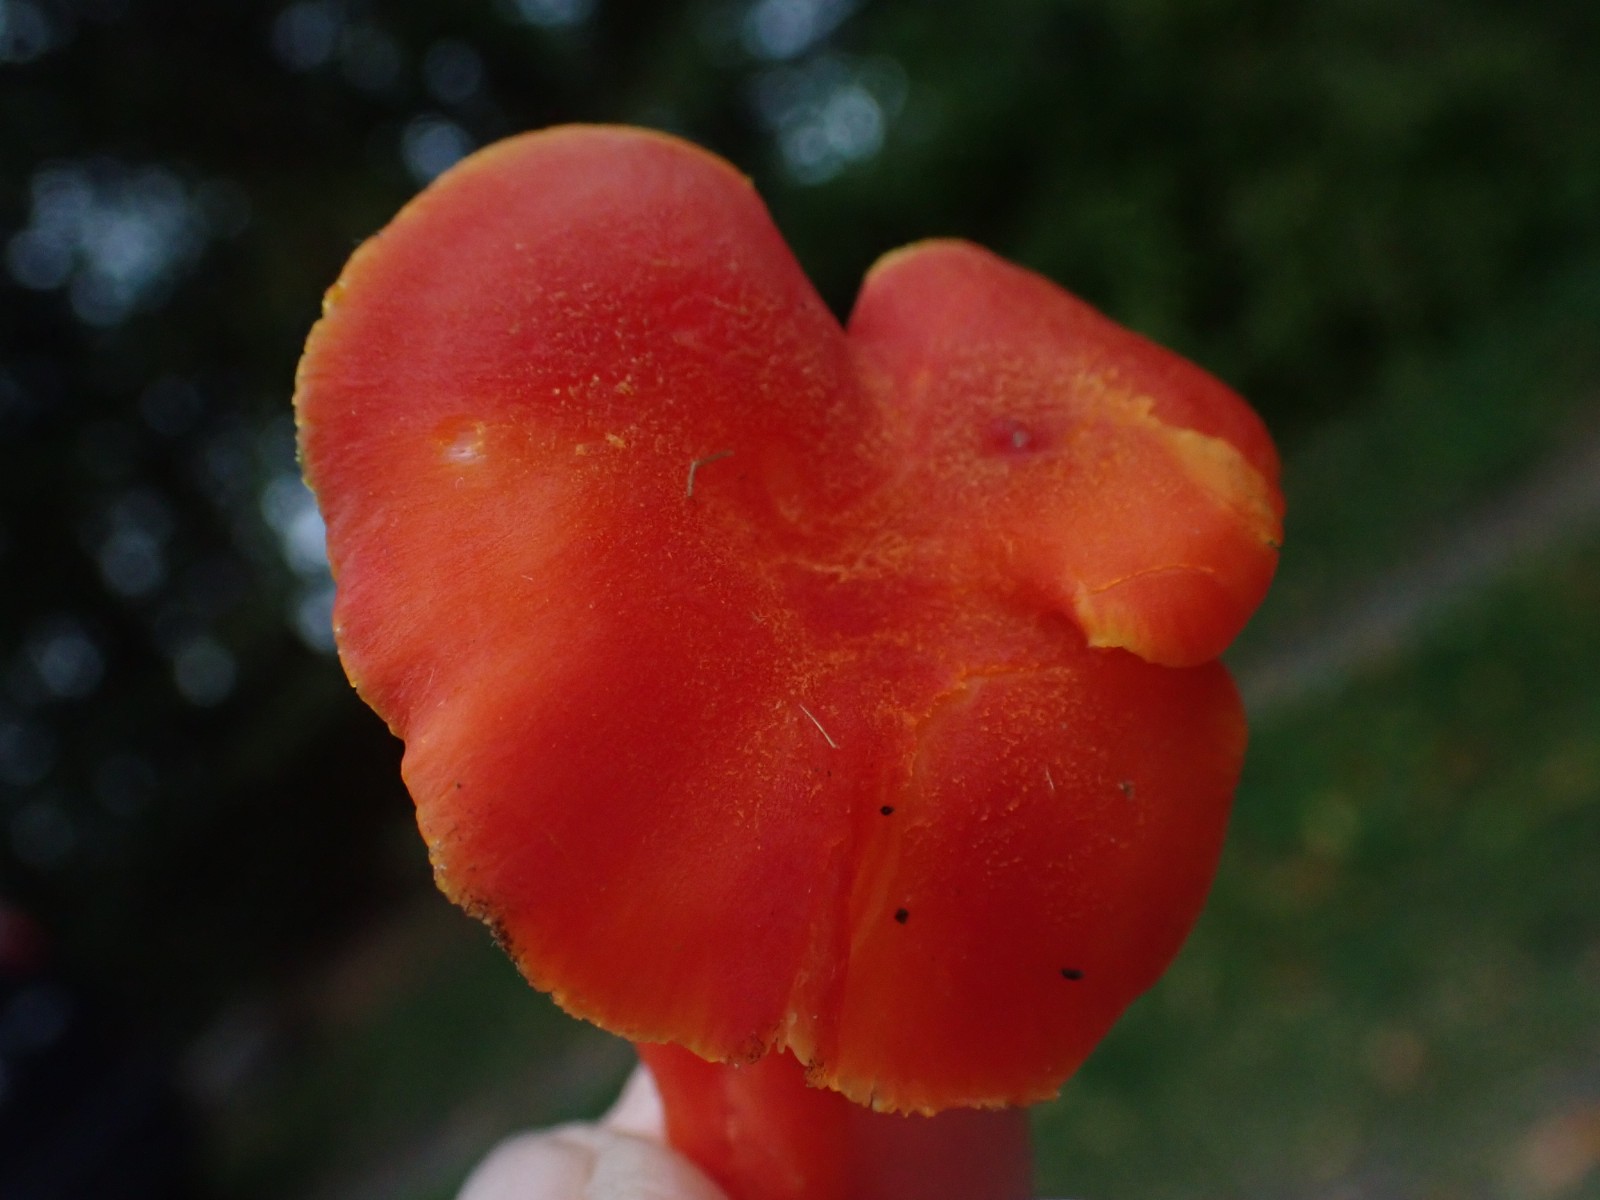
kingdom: Fungi
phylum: Basidiomycota
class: Agaricomycetes
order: Agaricales
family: Hygrophoraceae
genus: Hygrocybe
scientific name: Hygrocybe reidii
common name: honning-vokshat
